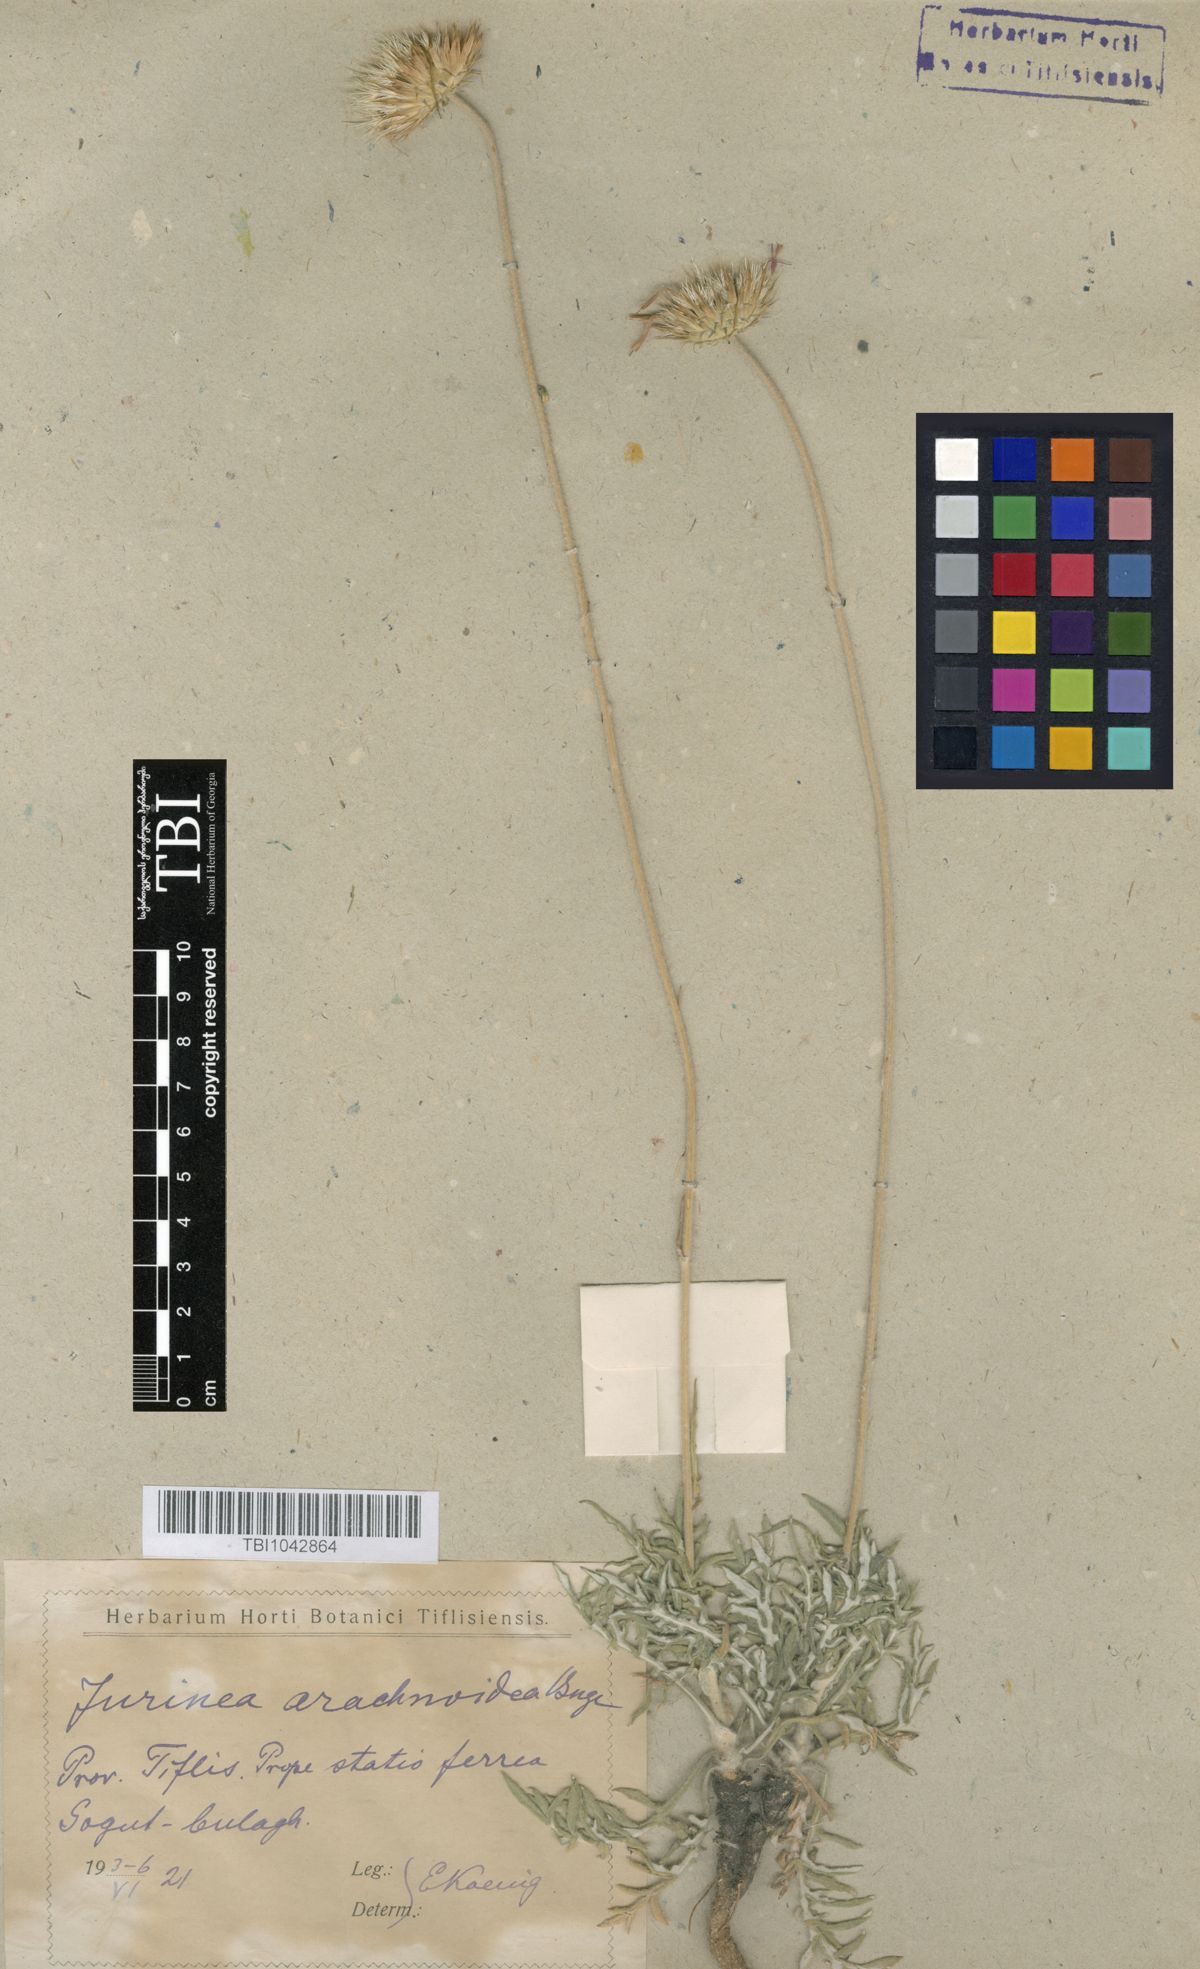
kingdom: Plantae
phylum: Tracheophyta
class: Magnoliopsida
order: Asterales
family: Asteraceae
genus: Jurinea
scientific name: Jurinea blanda
